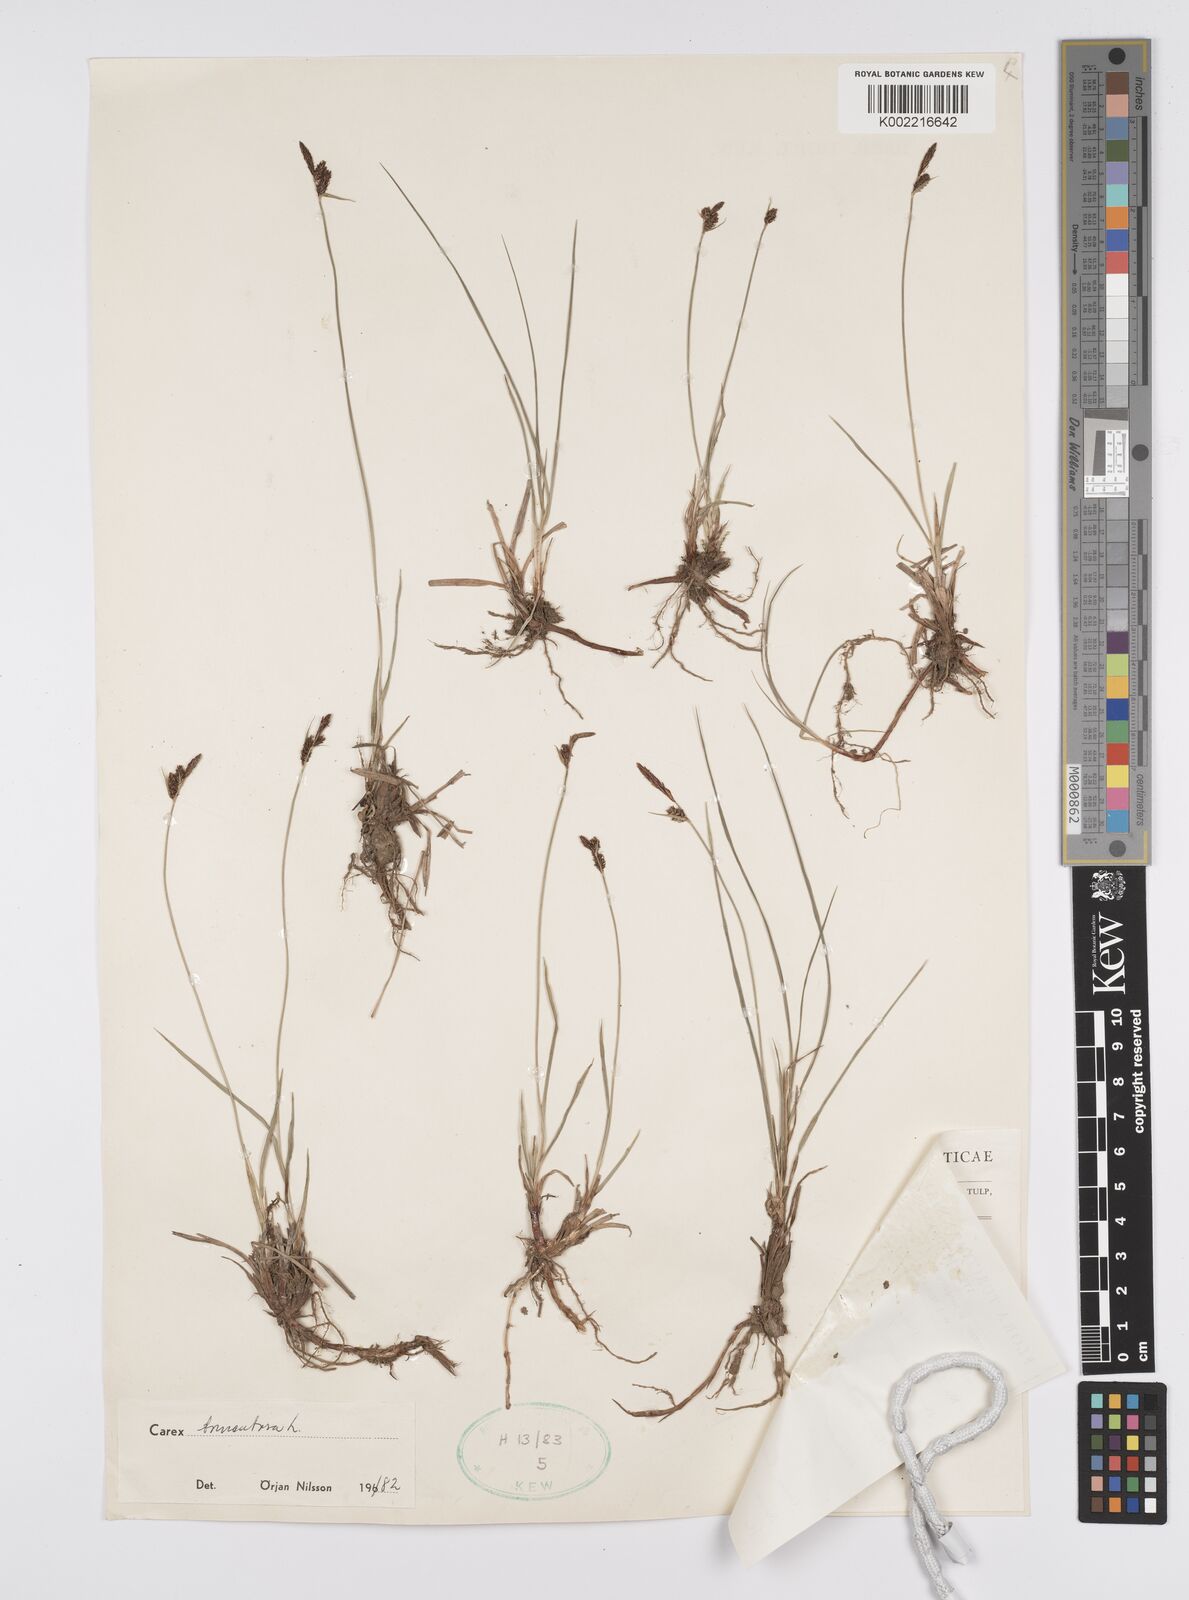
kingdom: Plantae
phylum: Tracheophyta
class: Liliopsida
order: Poales
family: Cyperaceae
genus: Carex
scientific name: Carex montana
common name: Soft-leaved sedge
